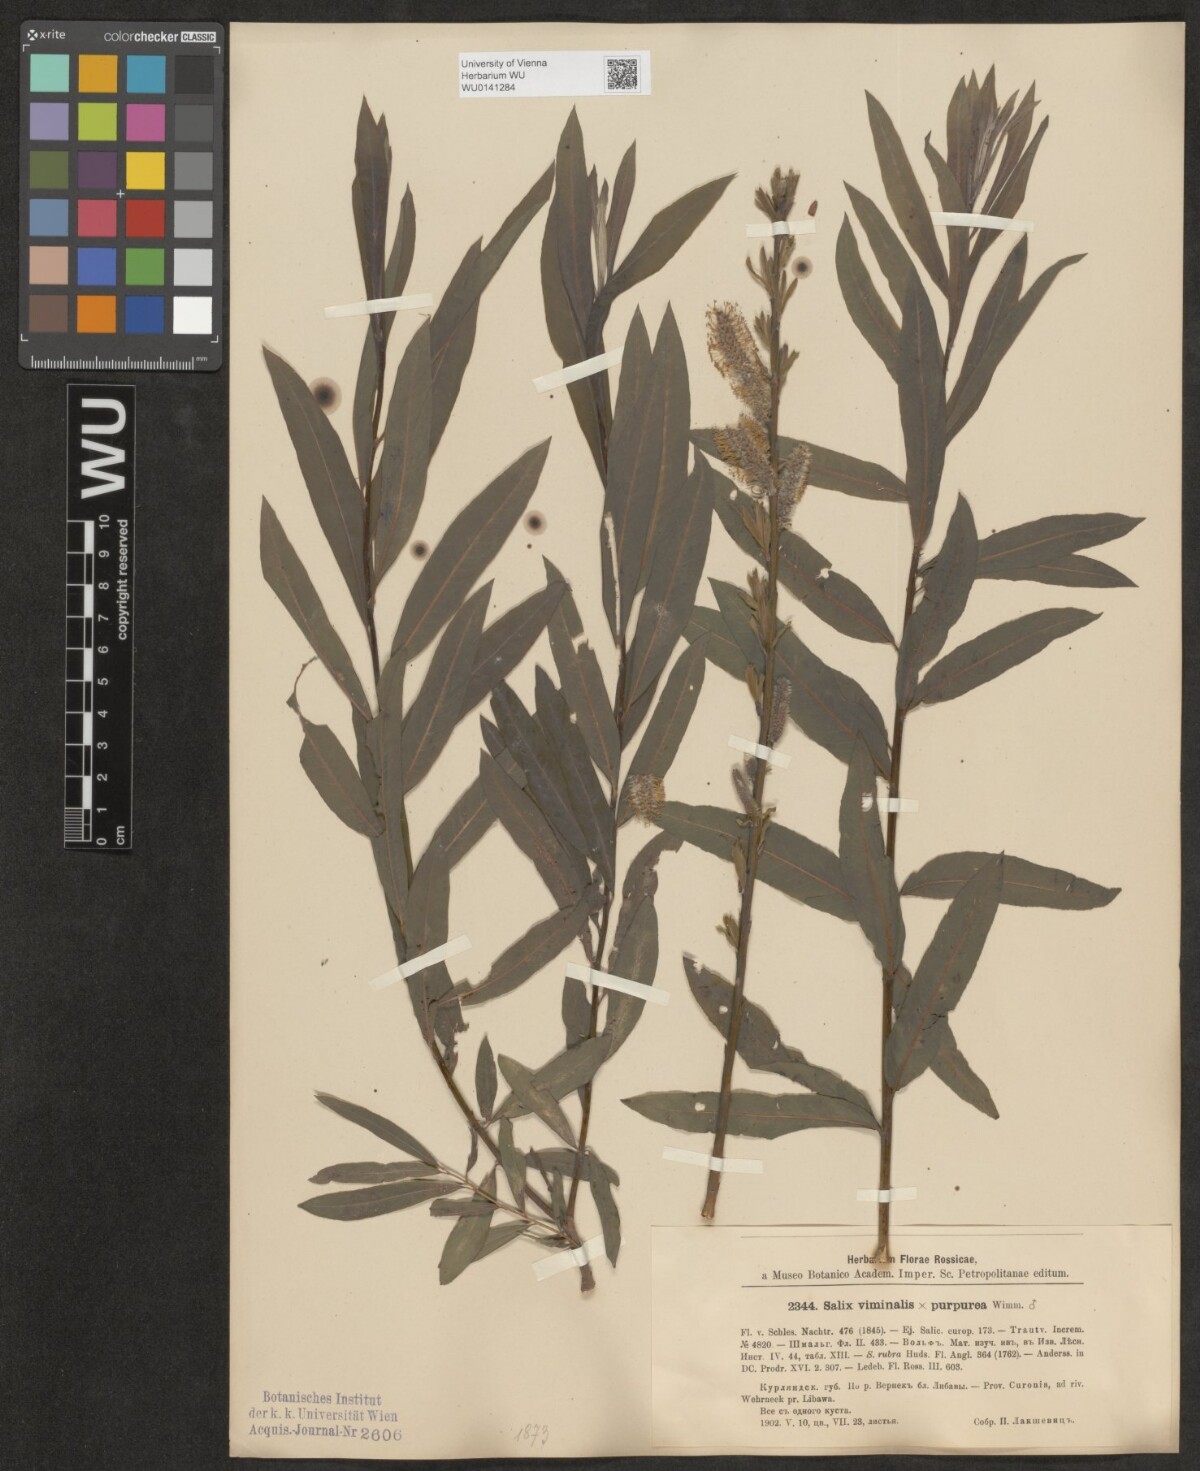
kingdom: Plantae
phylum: Tracheophyta
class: Magnoliopsida
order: Malpighiales
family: Salicaceae
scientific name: Salicaceae
